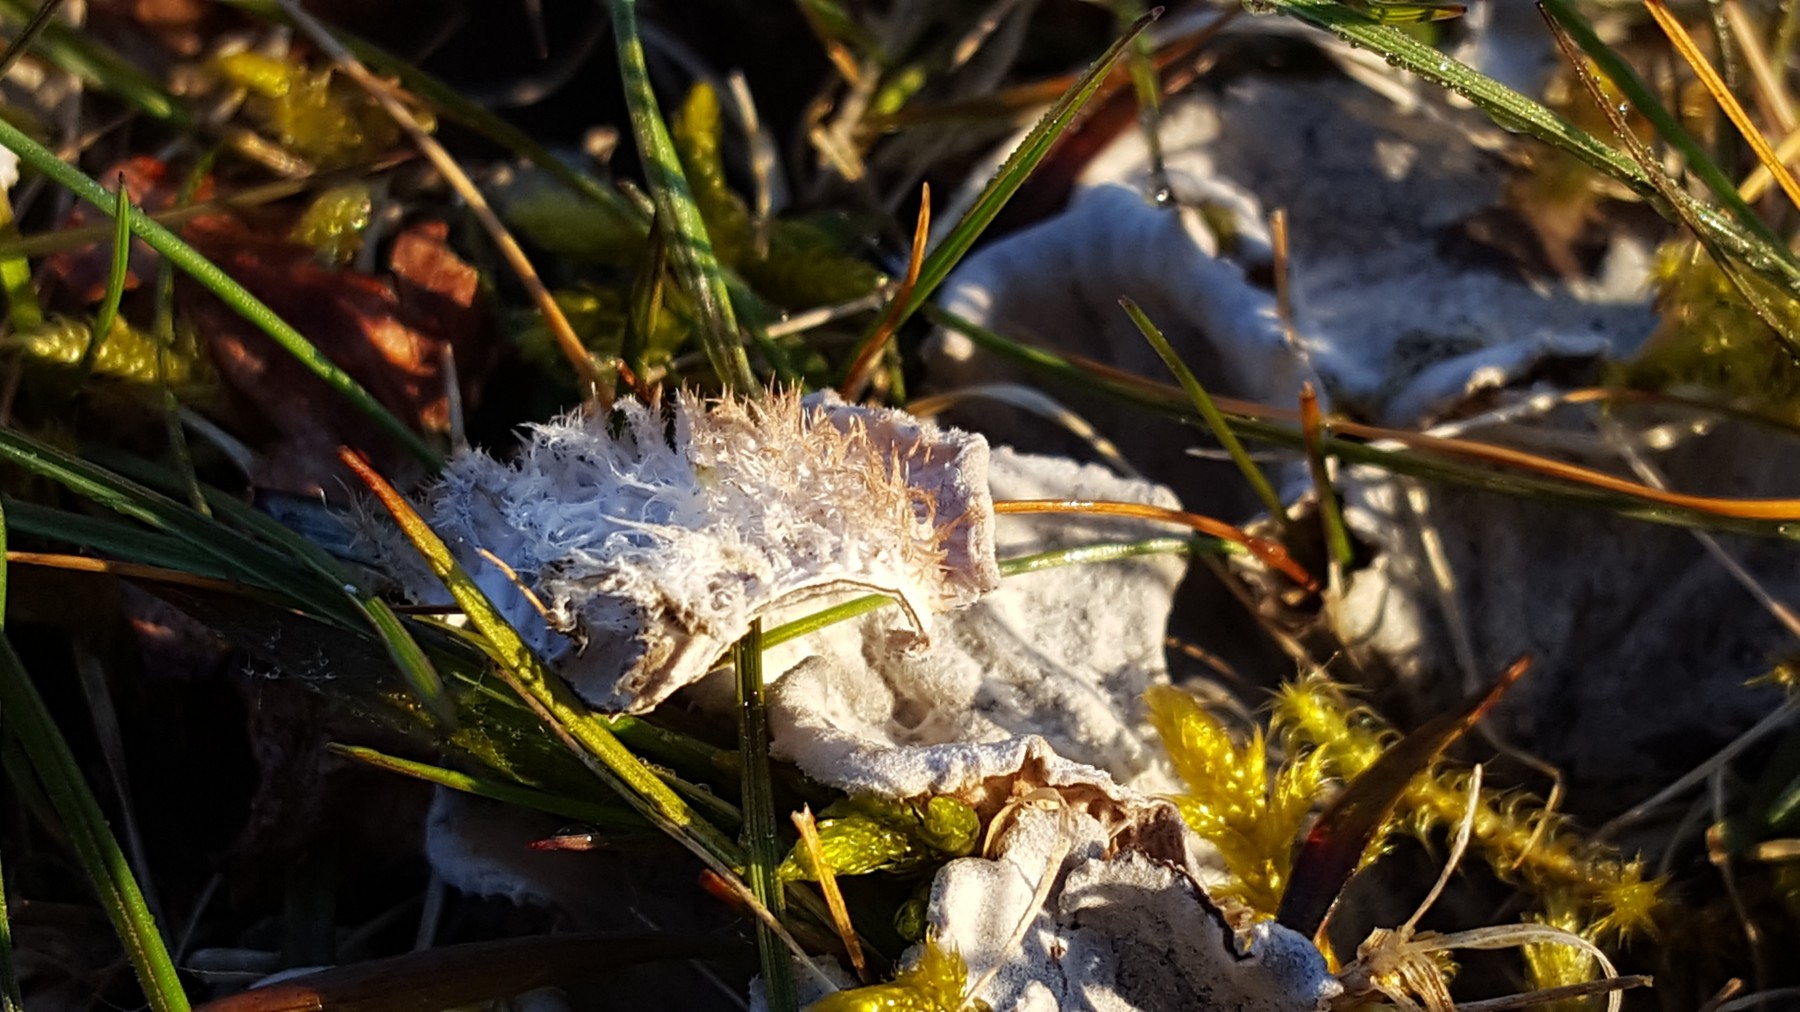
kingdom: Fungi
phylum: Ascomycota
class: Lecanoromycetes
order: Peltigerales
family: Peltigeraceae
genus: Peltigera
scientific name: Peltigera canina
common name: hunde-skjoldlav
